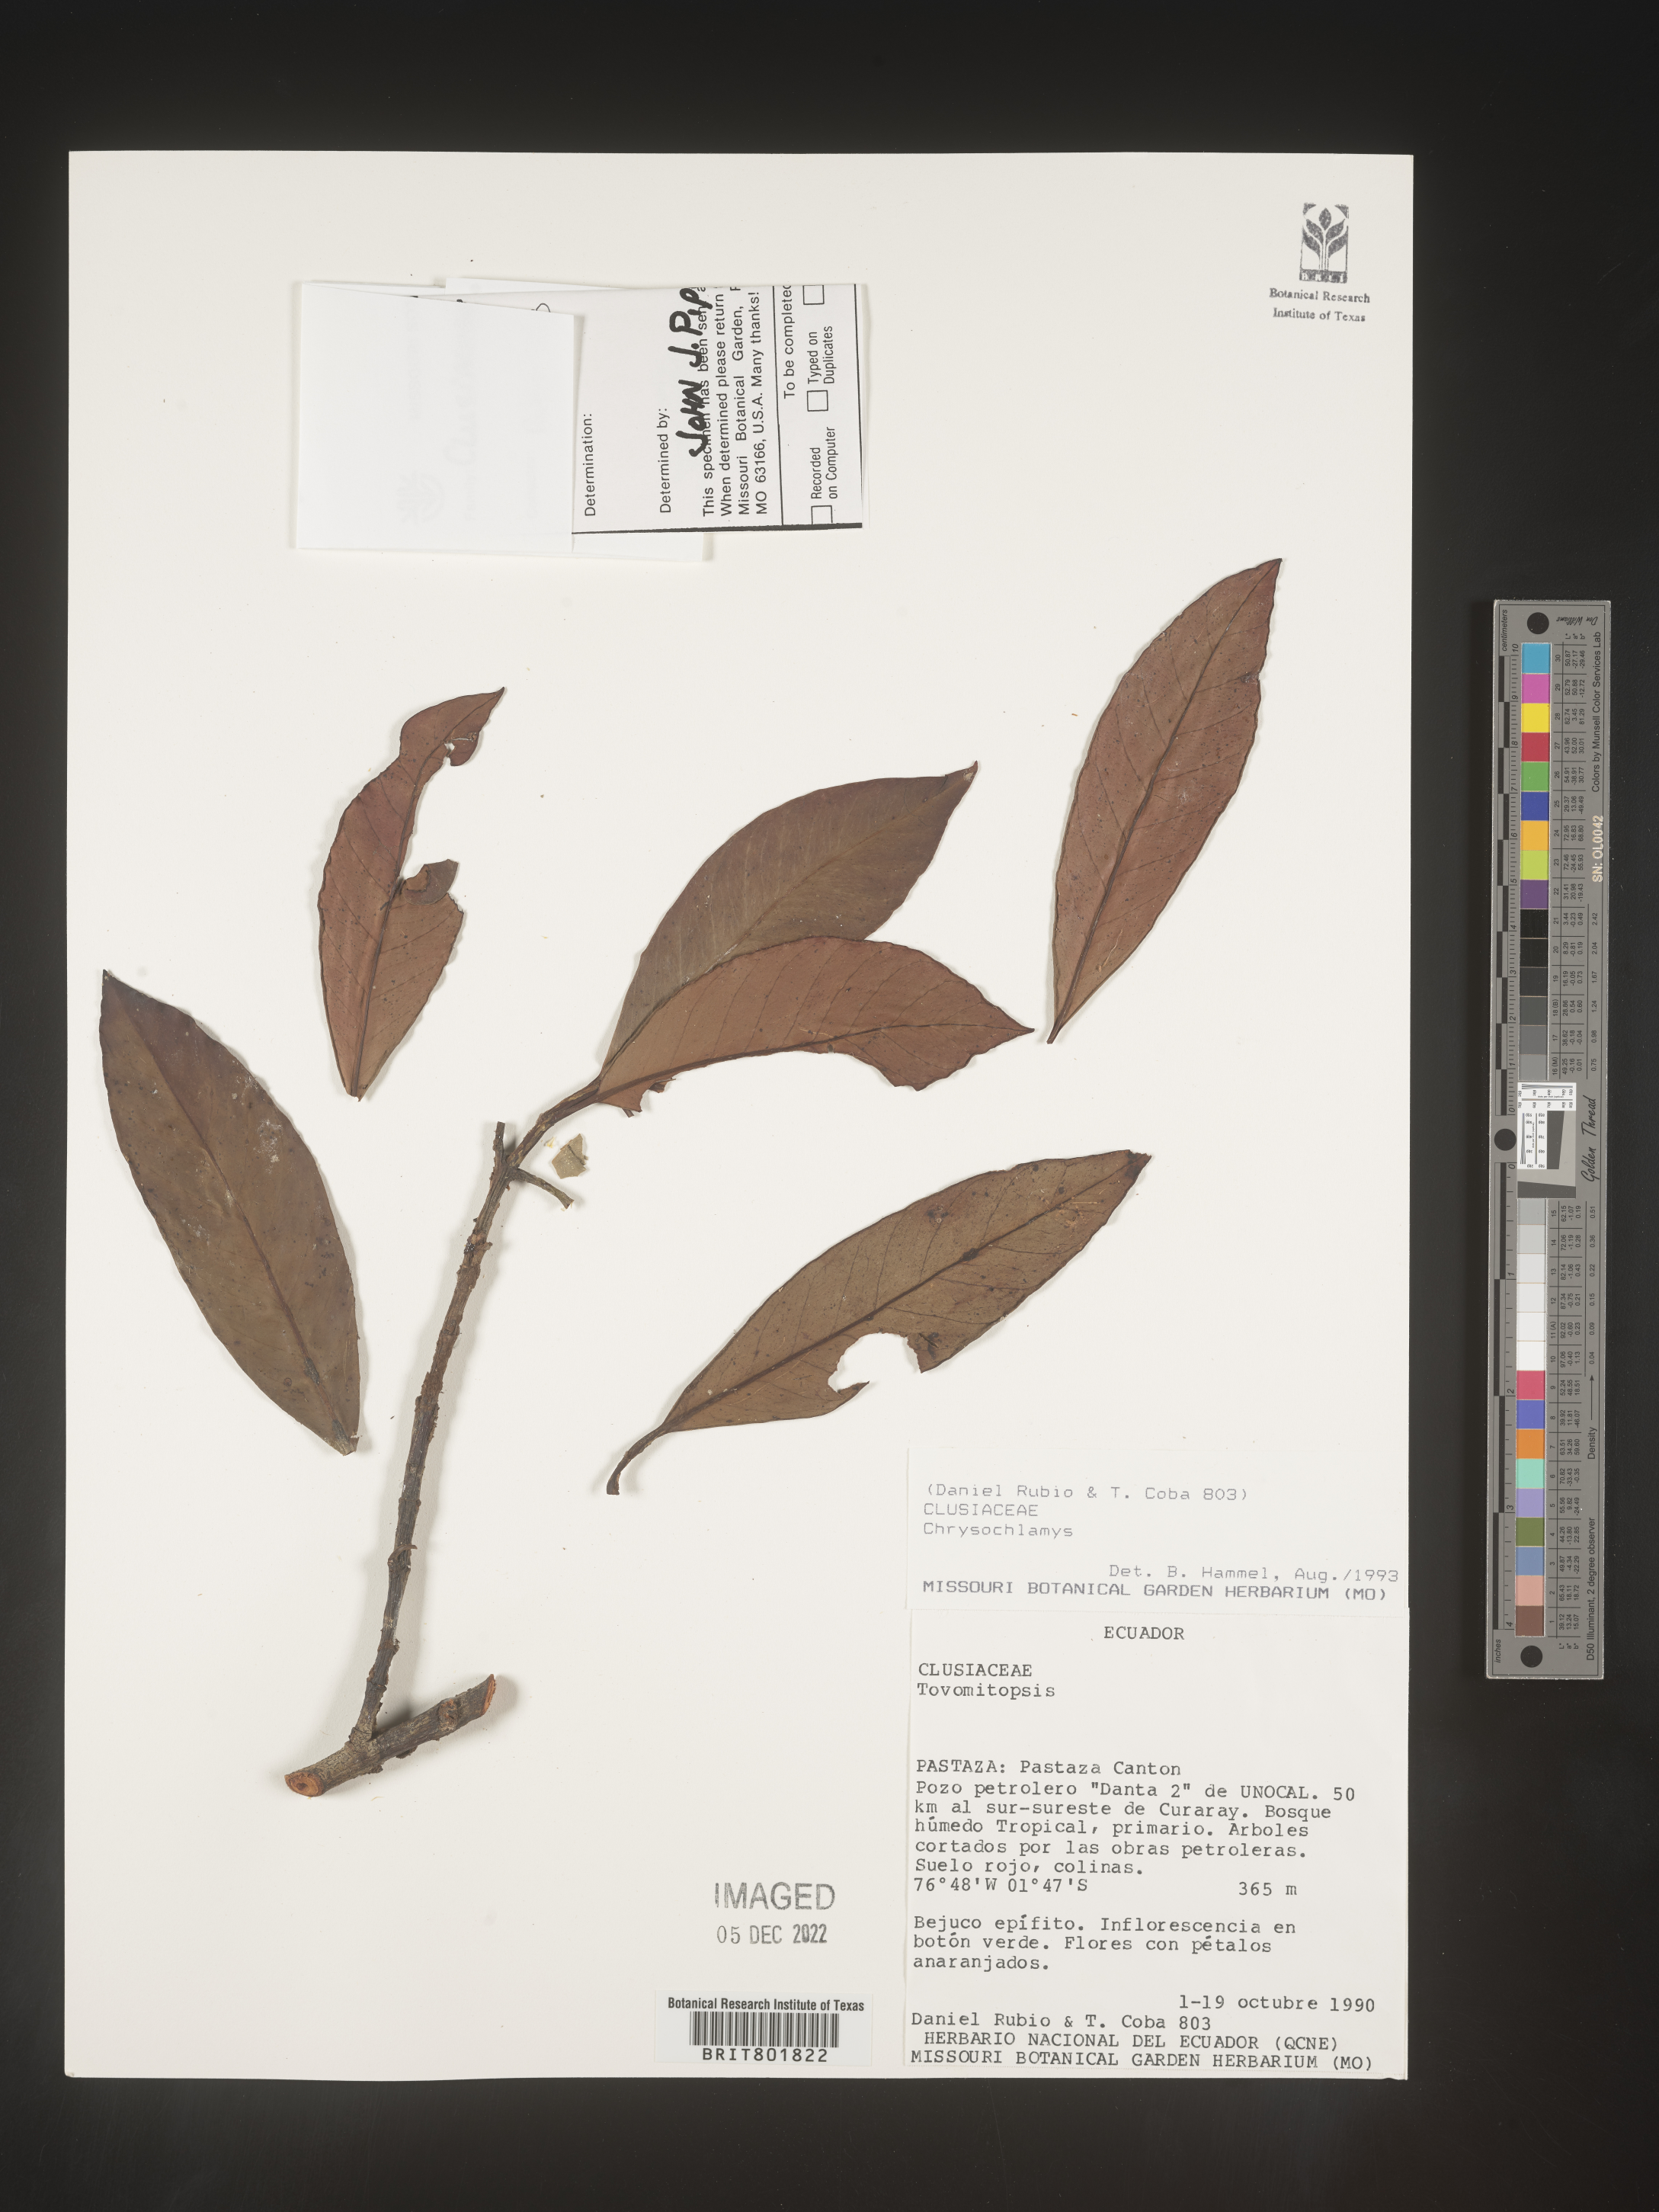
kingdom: Plantae
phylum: Tracheophyta
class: Magnoliopsida
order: Malpighiales
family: Clusiaceae
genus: Chrysochlamys
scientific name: Chrysochlamys
